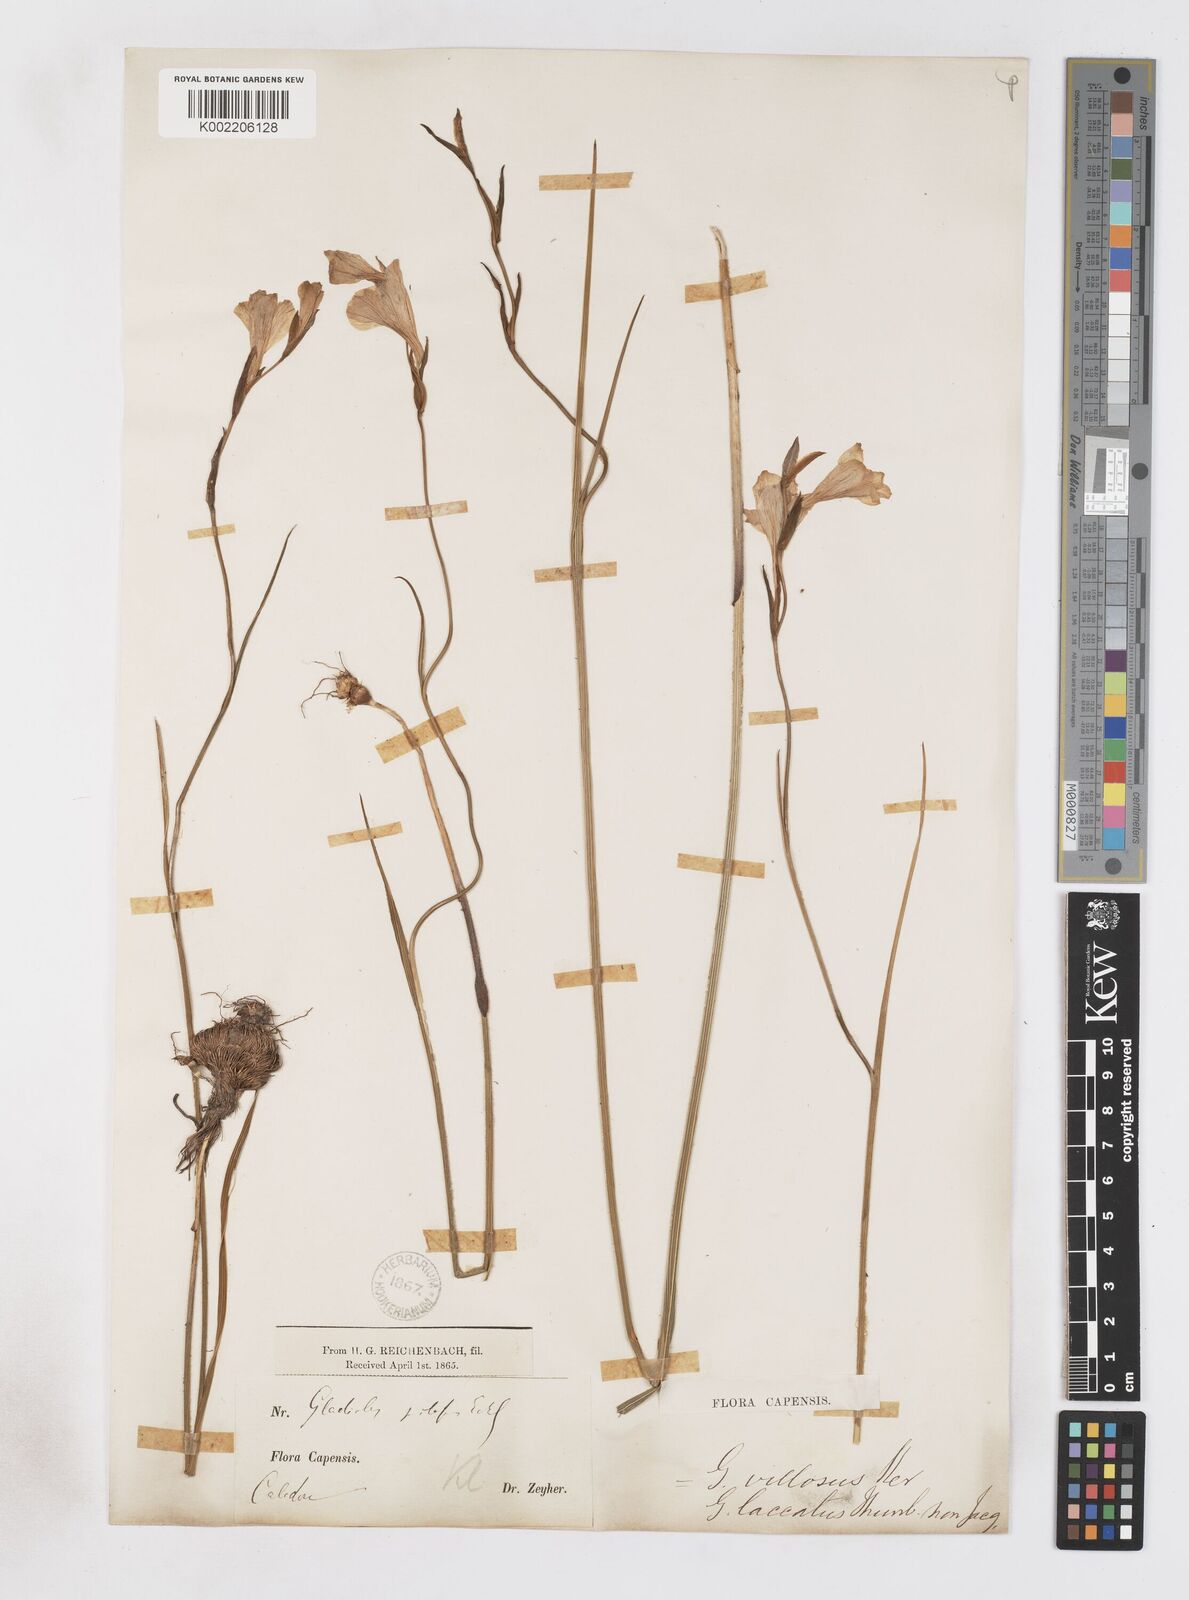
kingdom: Plantae
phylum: Tracheophyta
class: Liliopsida
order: Asparagales
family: Iridaceae
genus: Gladiolus
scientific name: Gladiolus hirsutus
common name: Small pink afrikaner
